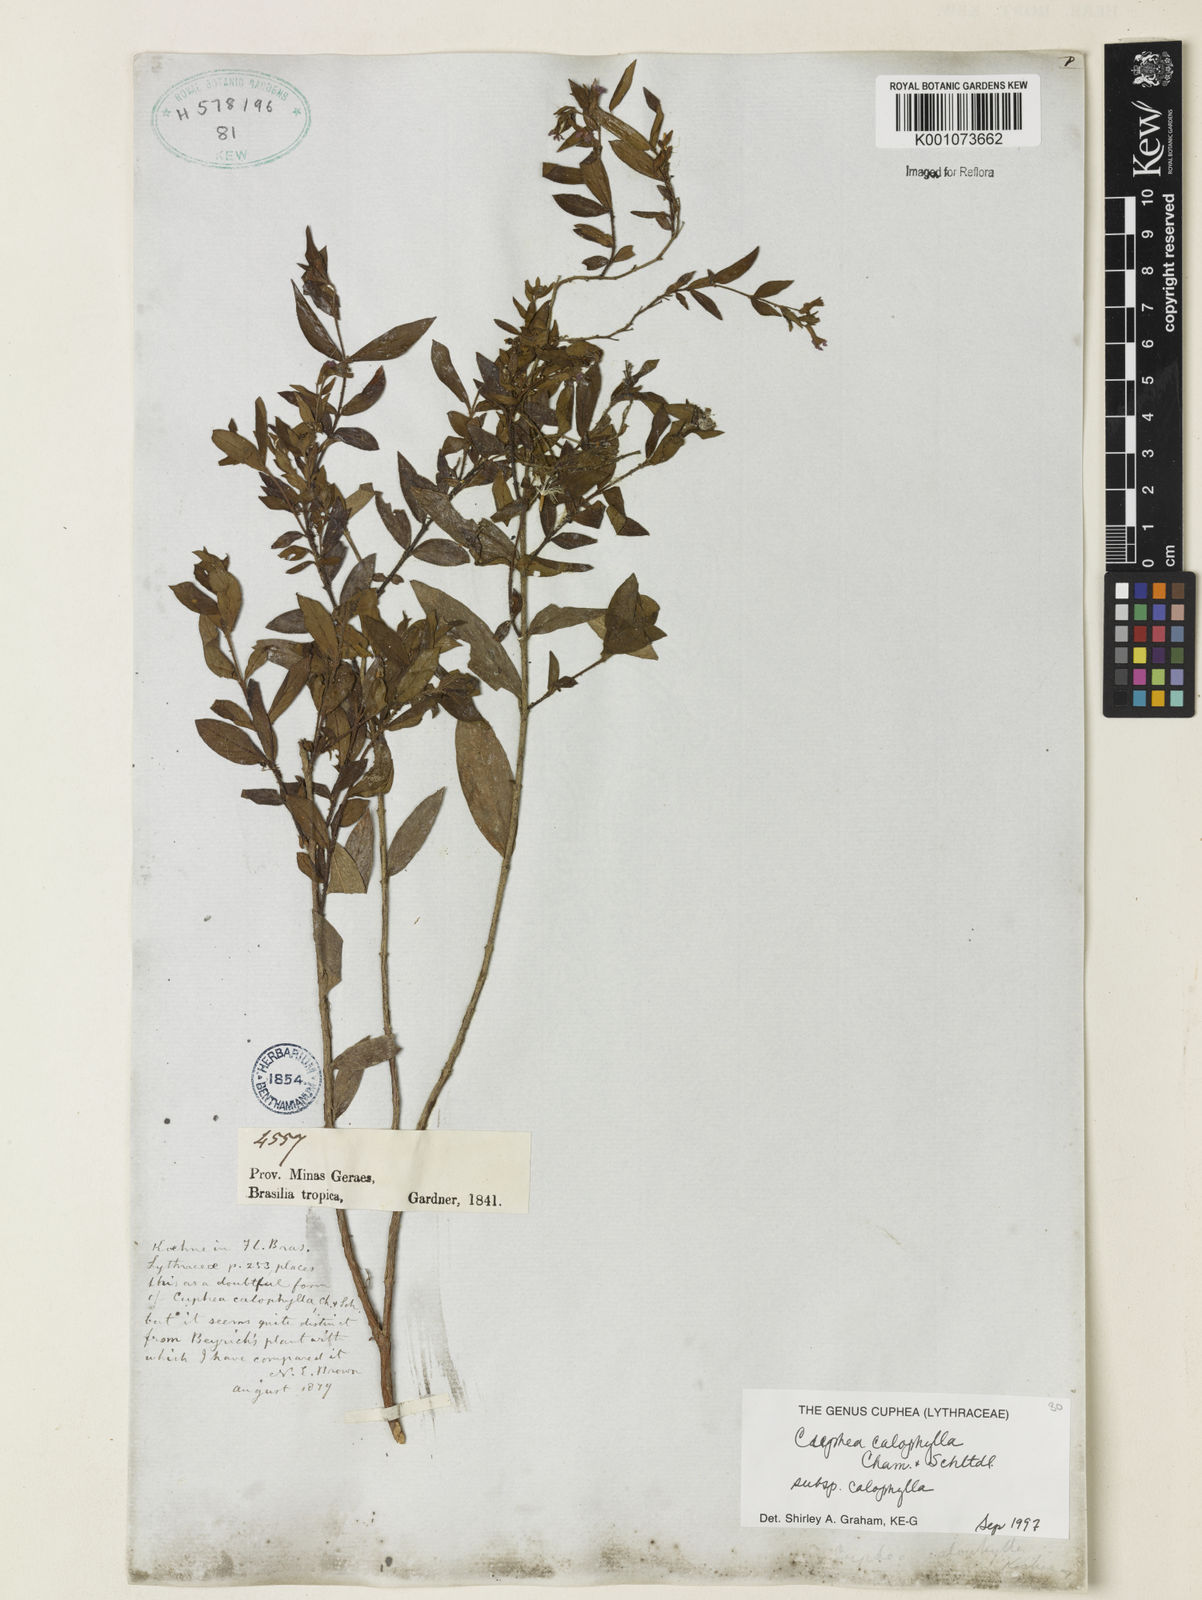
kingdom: Plantae
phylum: Tracheophyta
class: Magnoliopsida
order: Myrtales
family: Lythraceae
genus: Cuphea
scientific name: Cuphea calophylla
